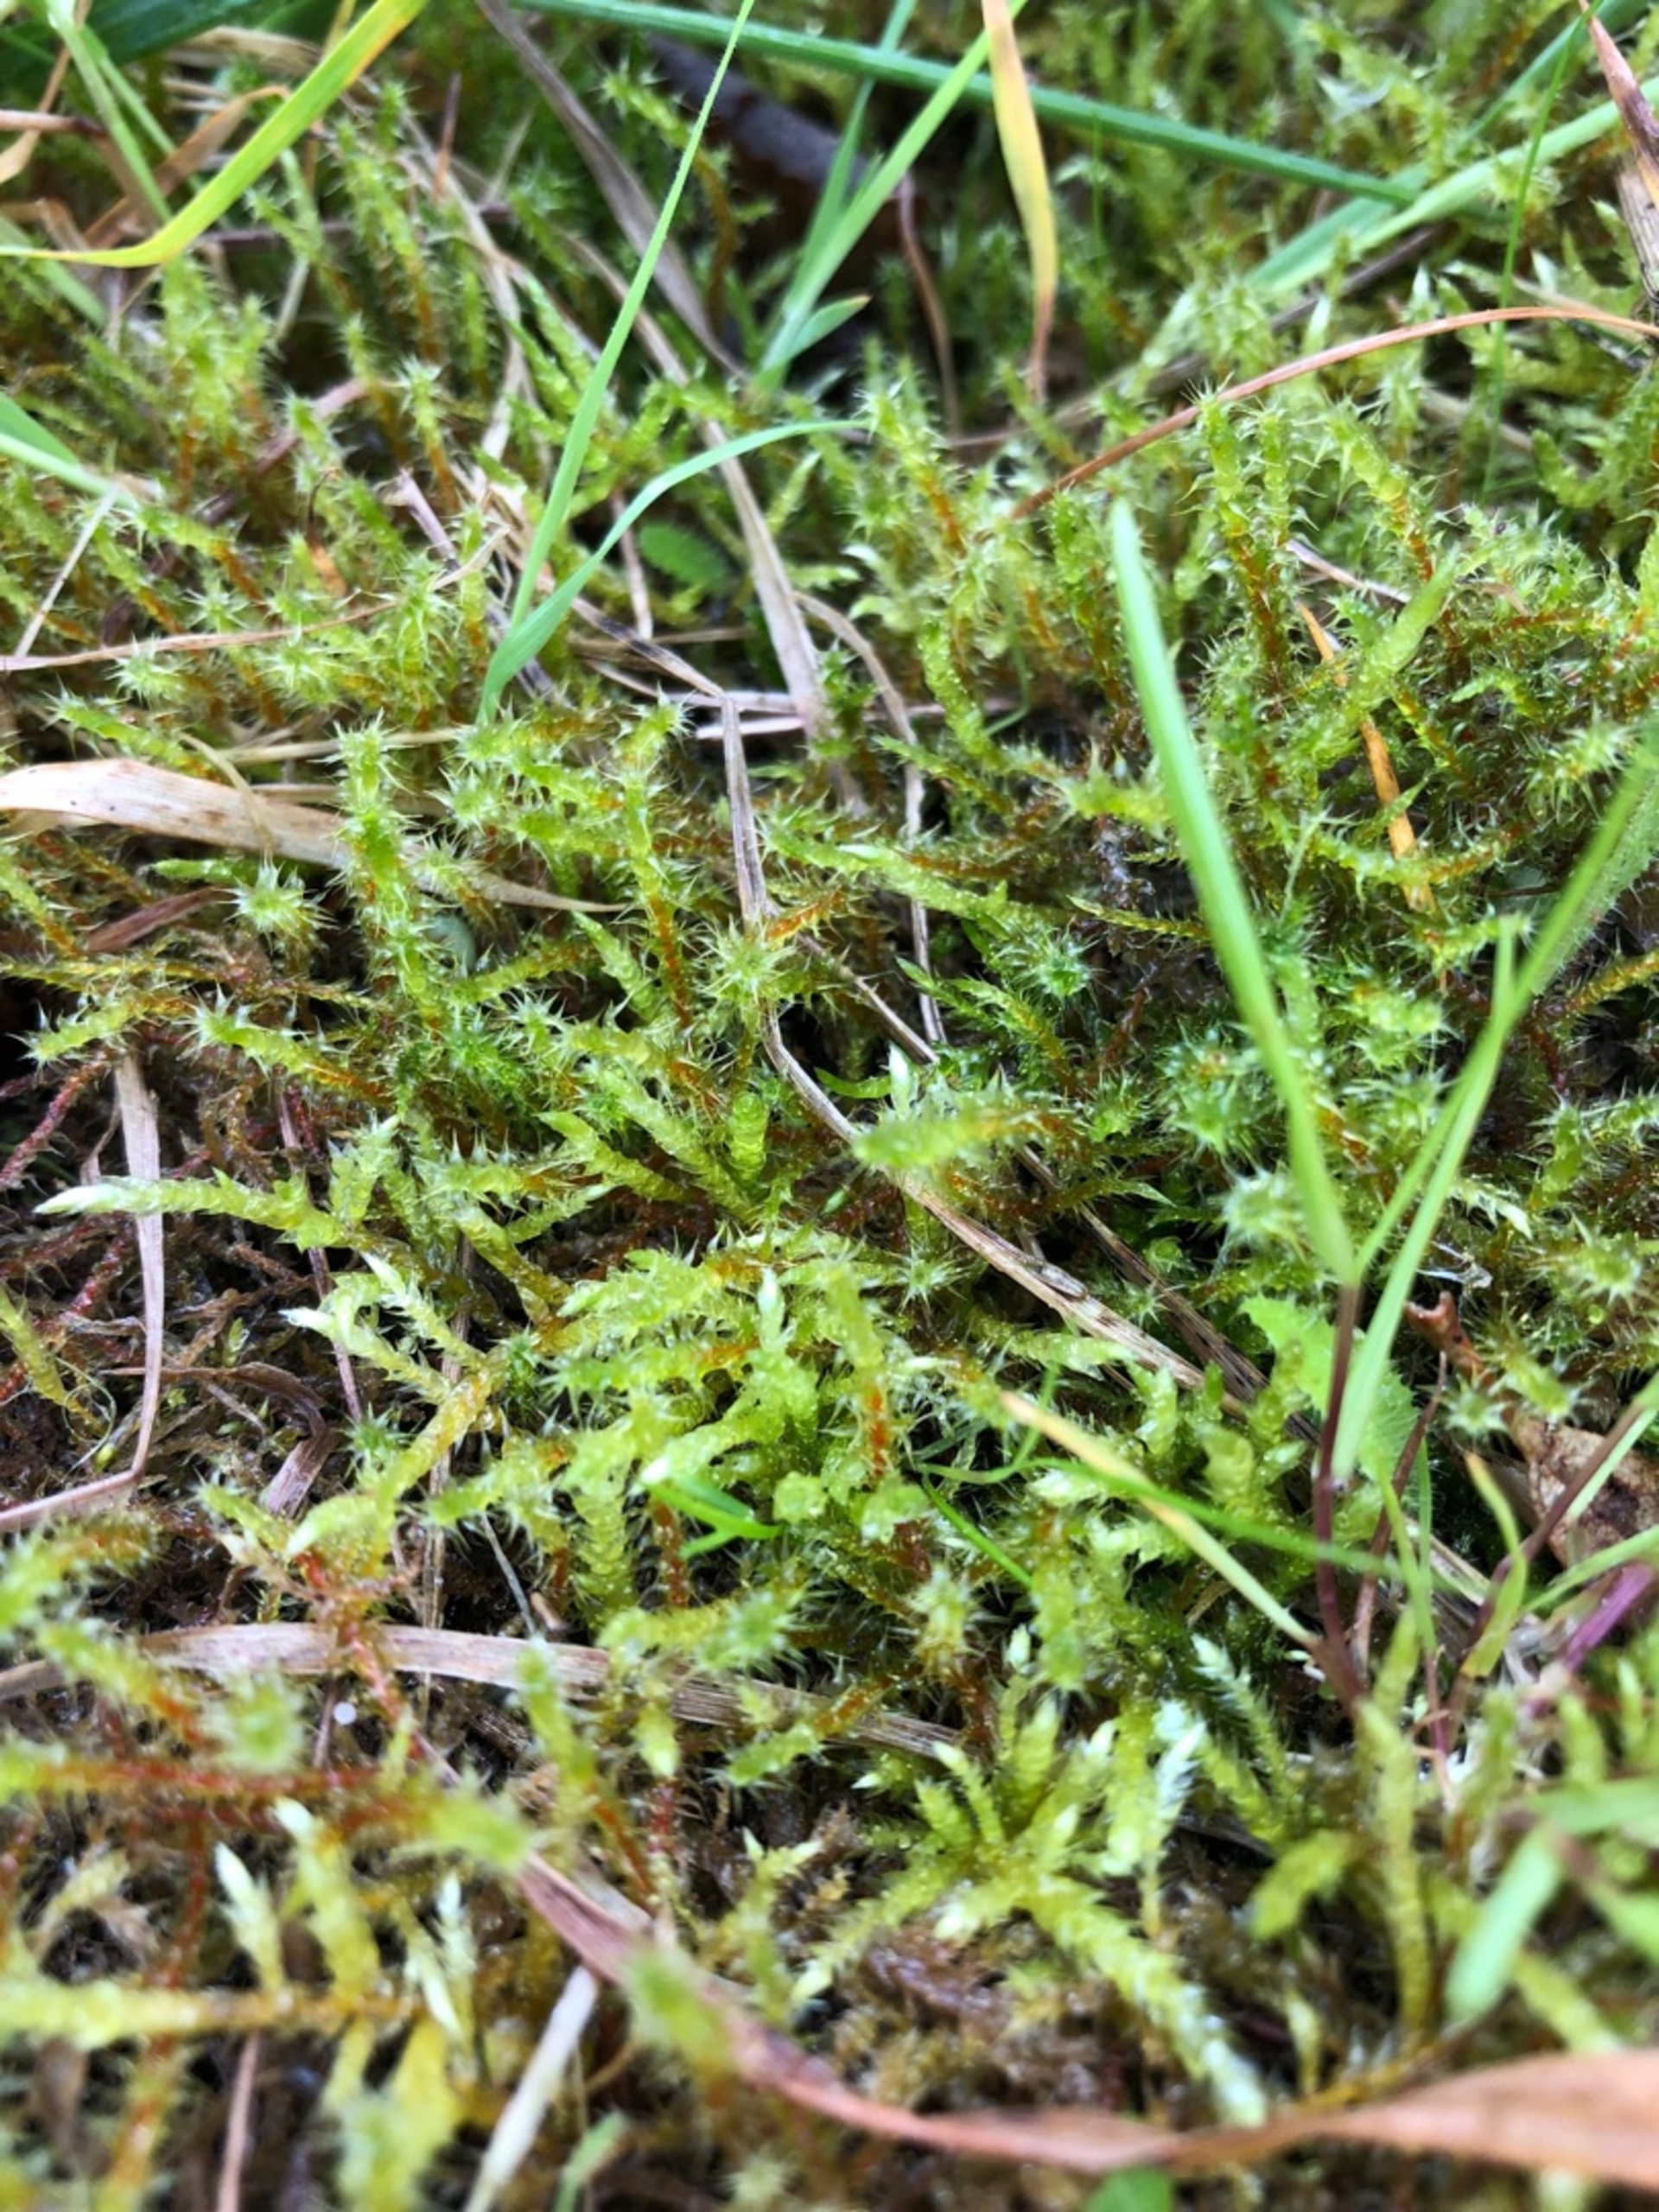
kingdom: Plantae
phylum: Bryophyta
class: Bryopsida
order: Hypnales
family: Hylocomiaceae
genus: Rhytidiadelphus
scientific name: Rhytidiadelphus squarrosus
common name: Plæne-kransemos
